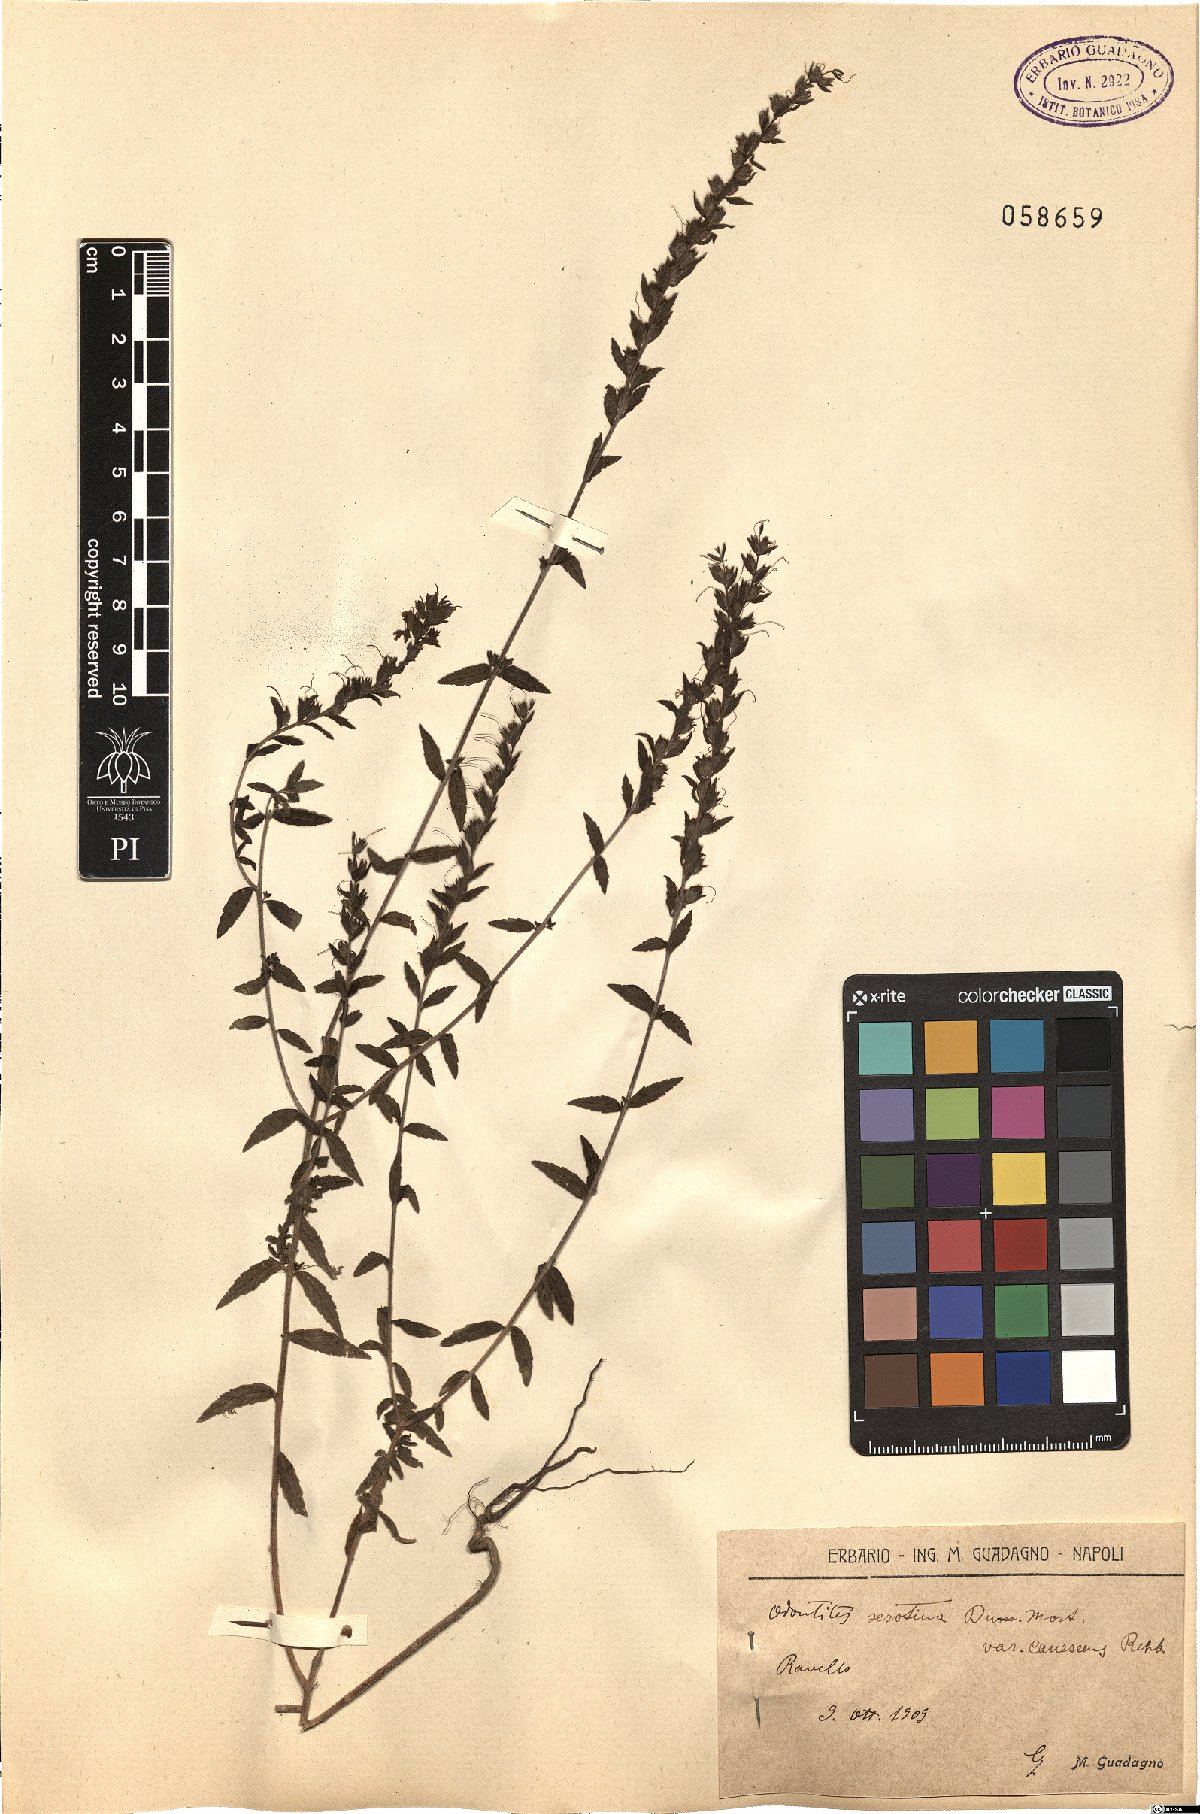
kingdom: Plantae
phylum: Tracheophyta
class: Magnoliopsida
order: Lamiales
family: Orobanchaceae
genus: Odontites
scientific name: Odontites vernus
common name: Red bartsia
